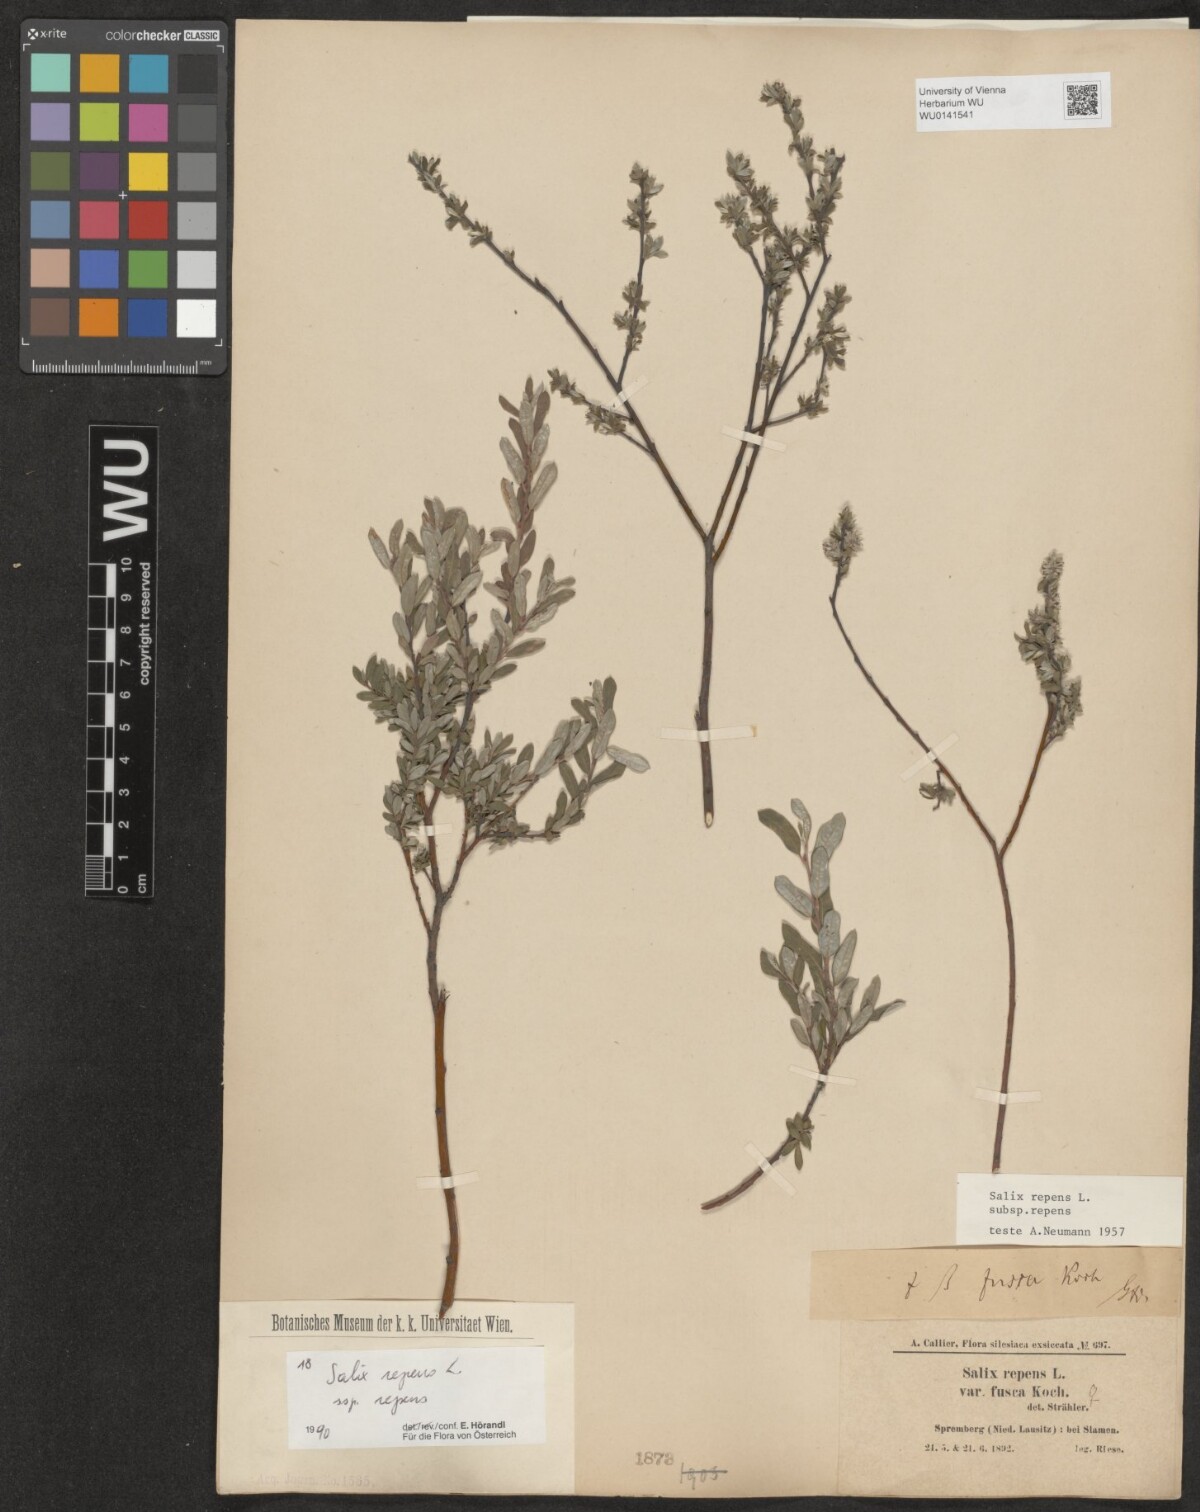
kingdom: Plantae
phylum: Tracheophyta
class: Magnoliopsida
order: Malpighiales
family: Salicaceae
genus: Salix
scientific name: Salix repens
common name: Creeping willow
